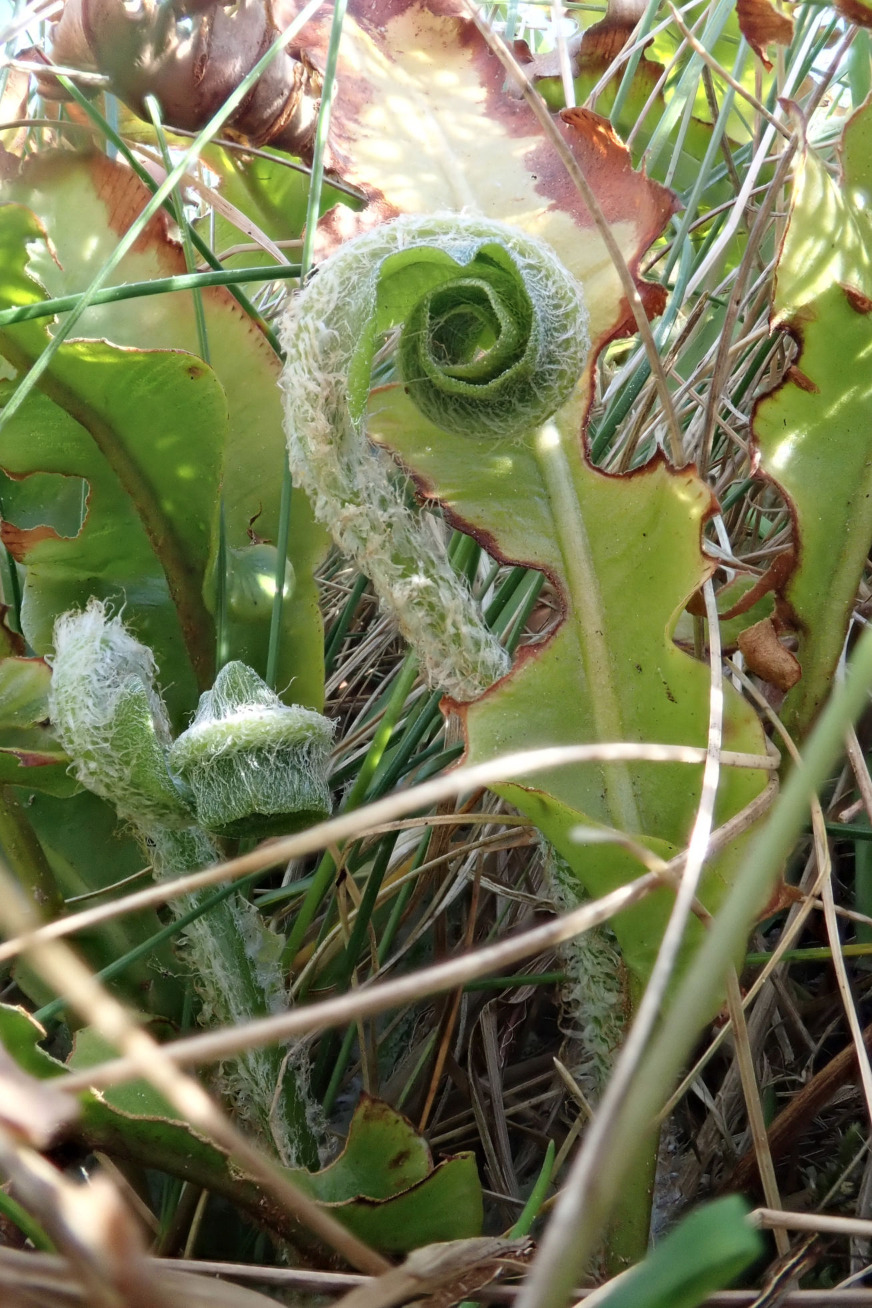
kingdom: Plantae
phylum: Tracheophyta
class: Polypodiopsida
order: Polypodiales
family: Aspleniaceae
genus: Asplenium
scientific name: Asplenium scolopendrium
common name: Hjortetunge
